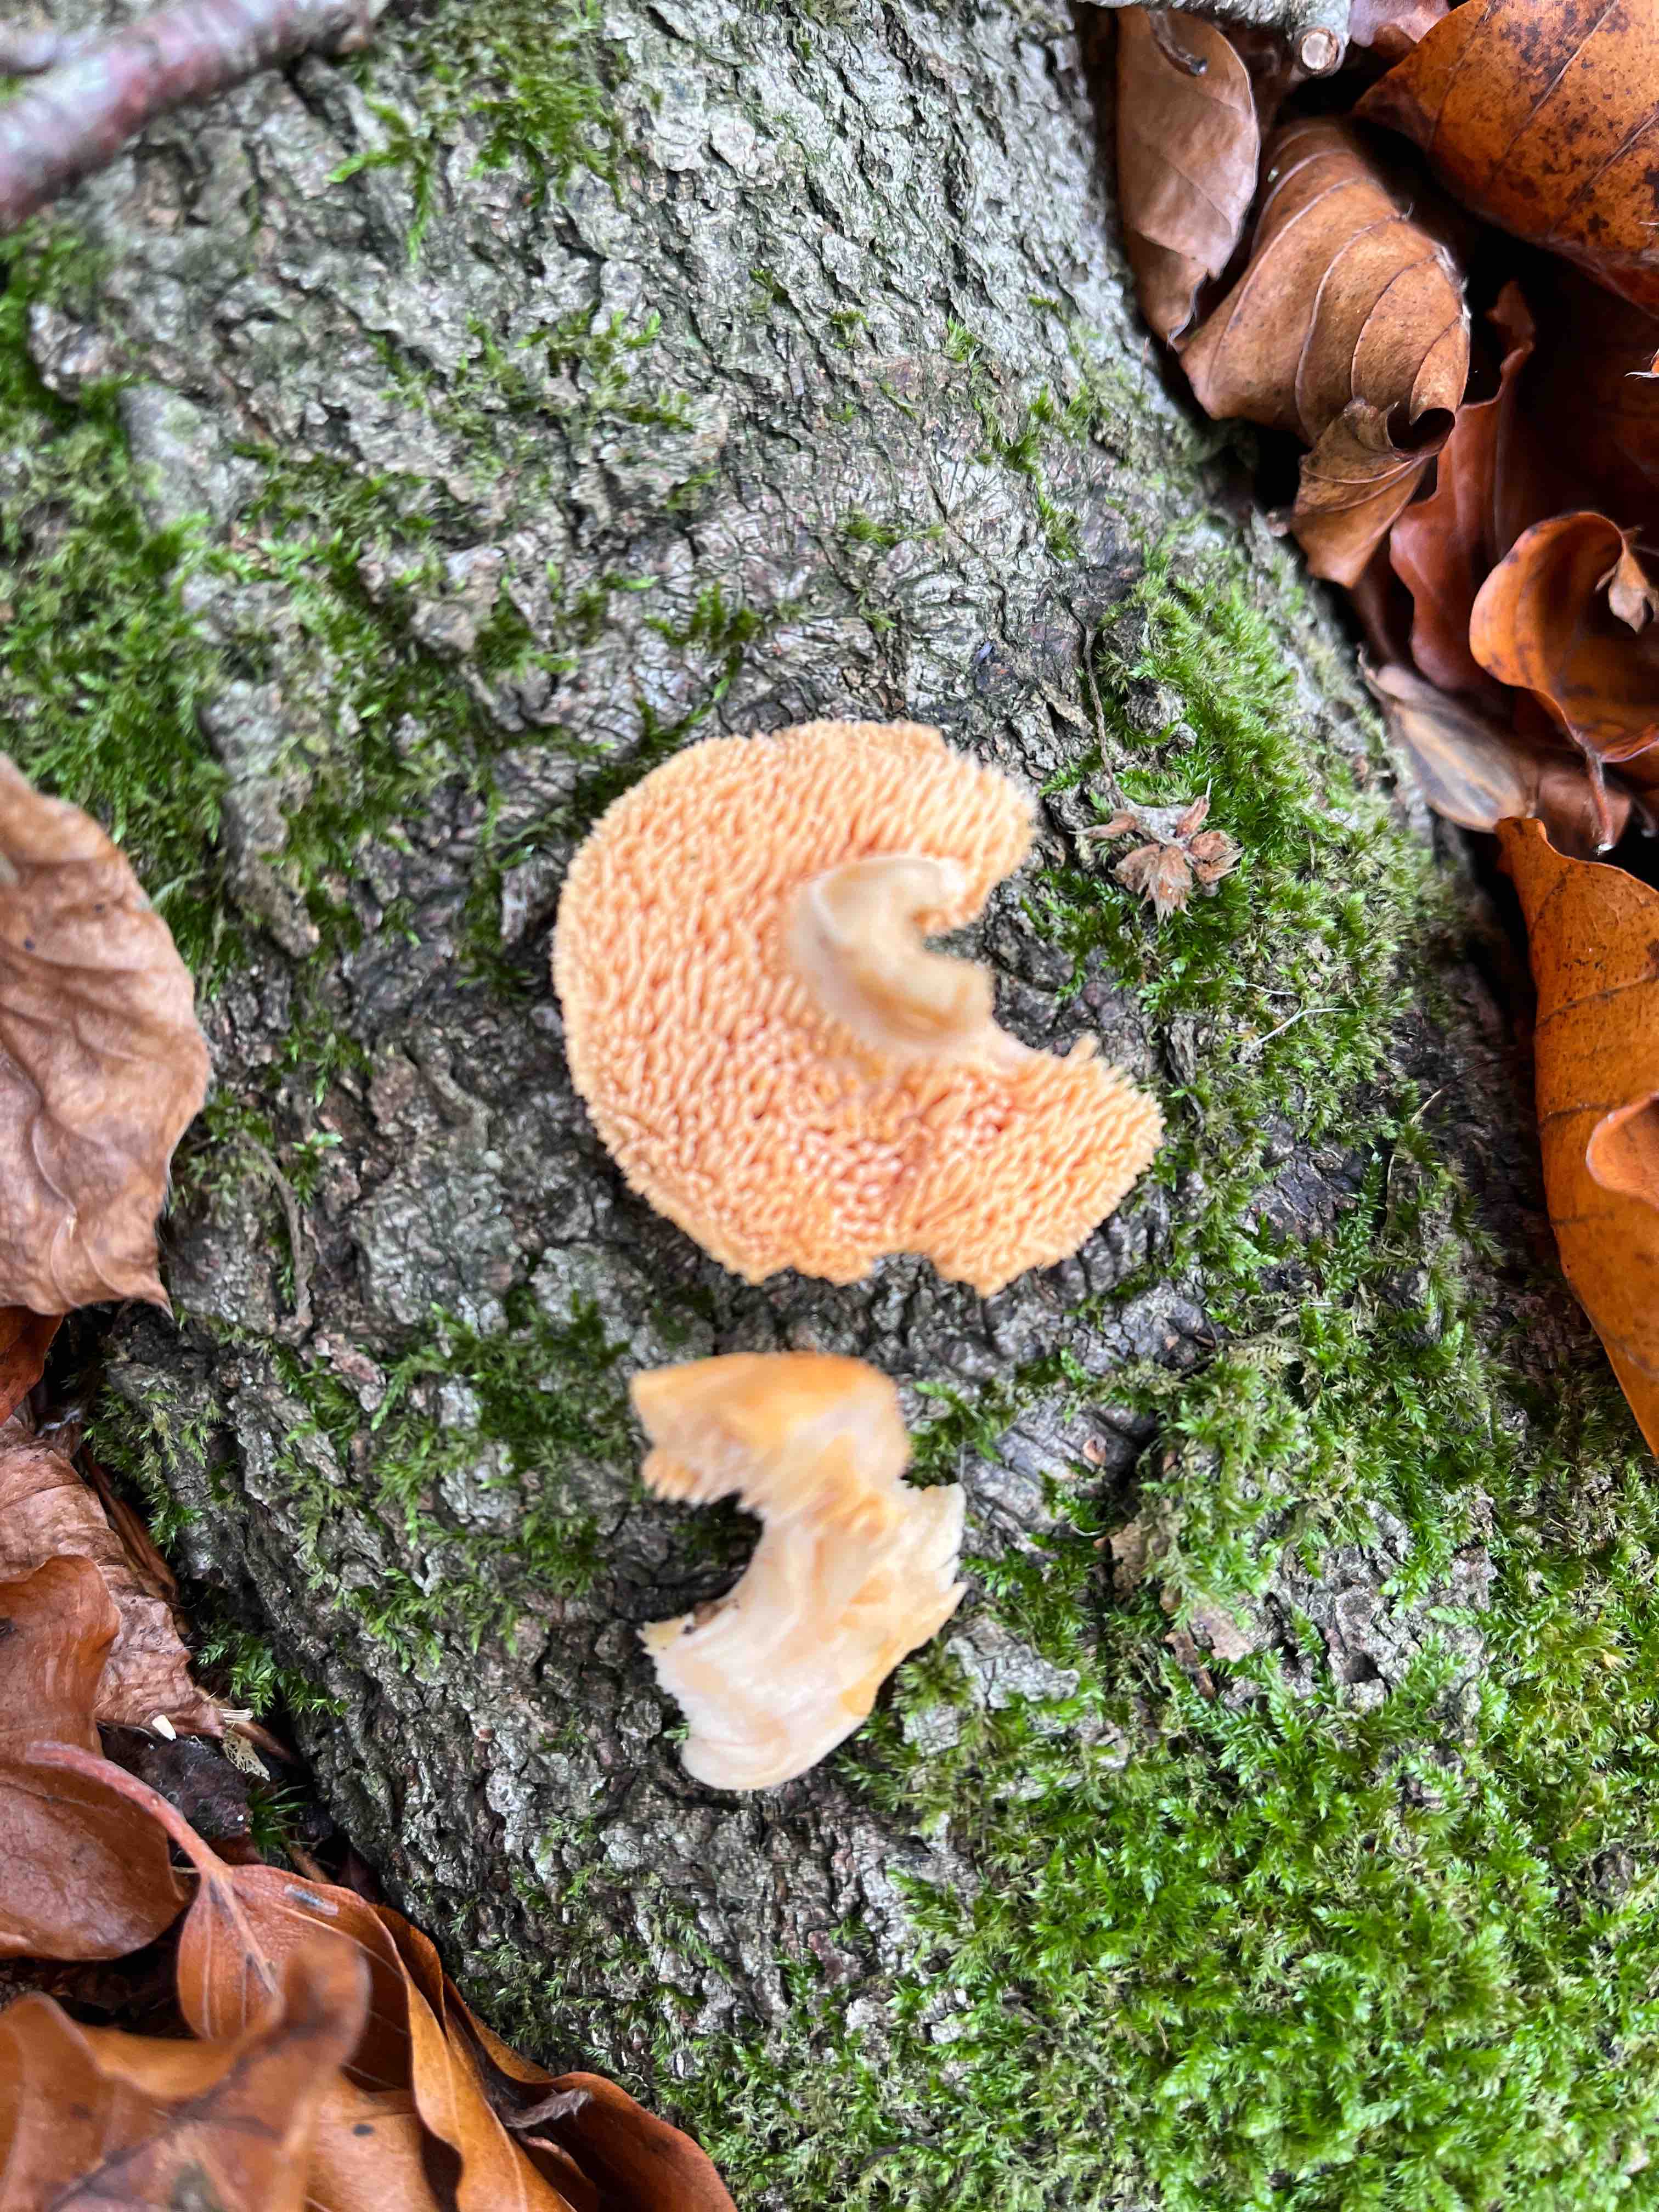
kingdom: Fungi
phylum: Basidiomycota
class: Agaricomycetes
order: Cantharellales
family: Hydnaceae
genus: Hydnum
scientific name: Hydnum rufescens
